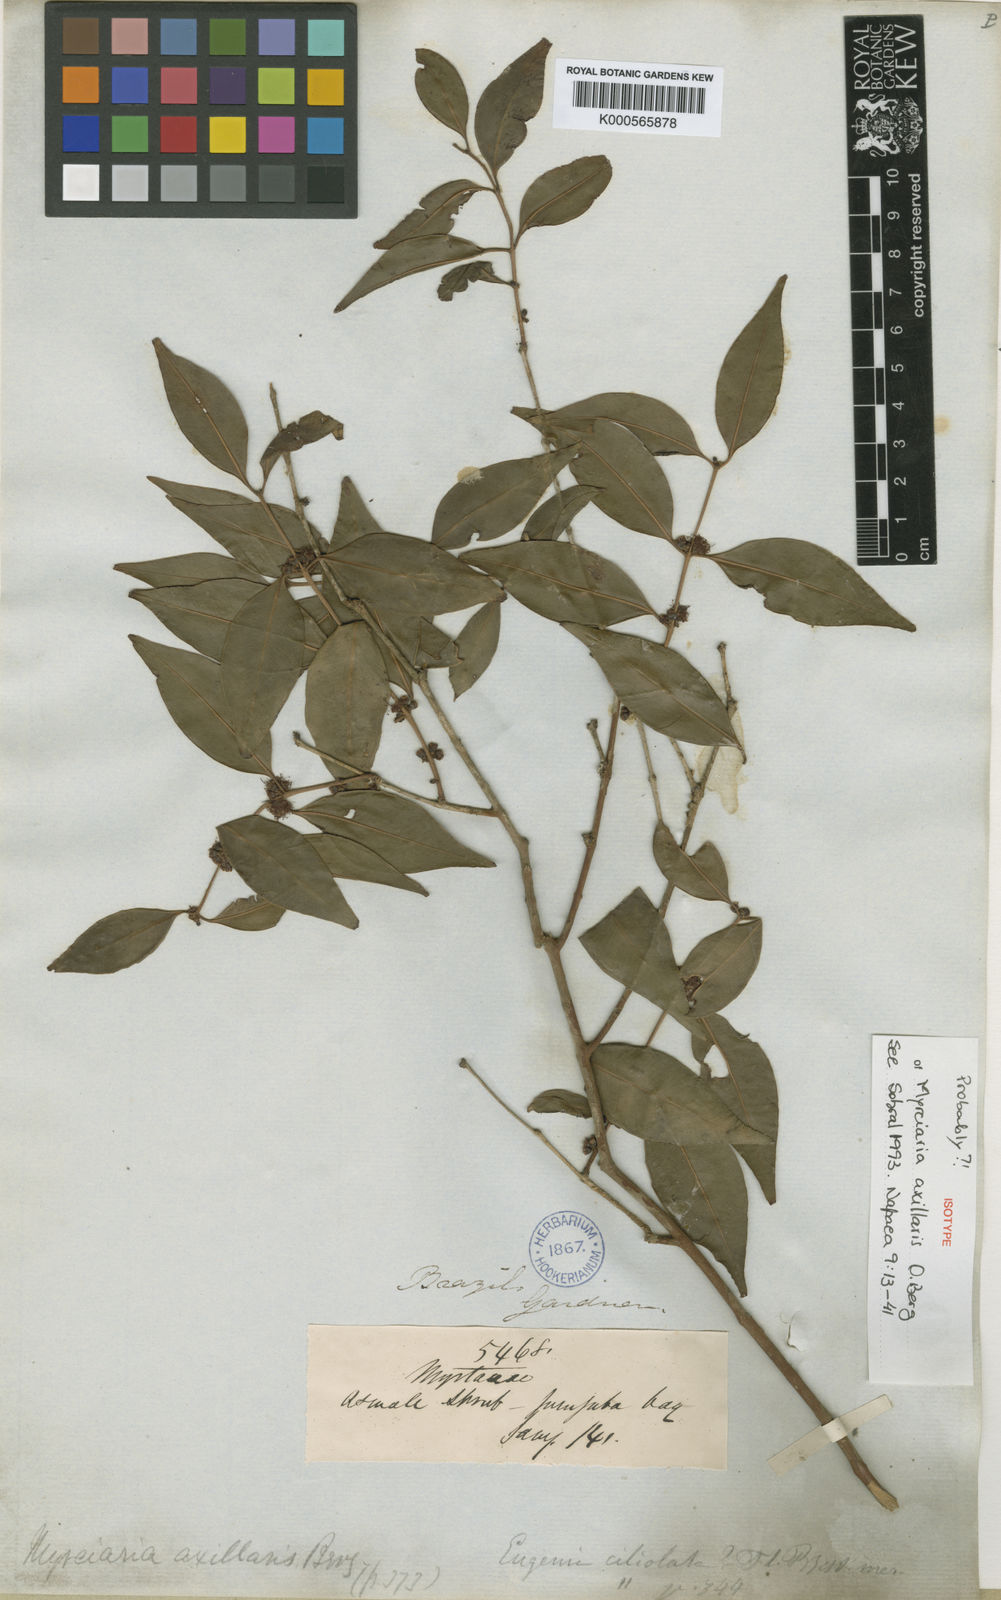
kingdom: Plantae
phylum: Tracheophyta
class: Magnoliopsida
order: Myrtales
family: Myrtaceae
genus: Myrciaria
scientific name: Myrciaria floribunda
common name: Guavaberry
